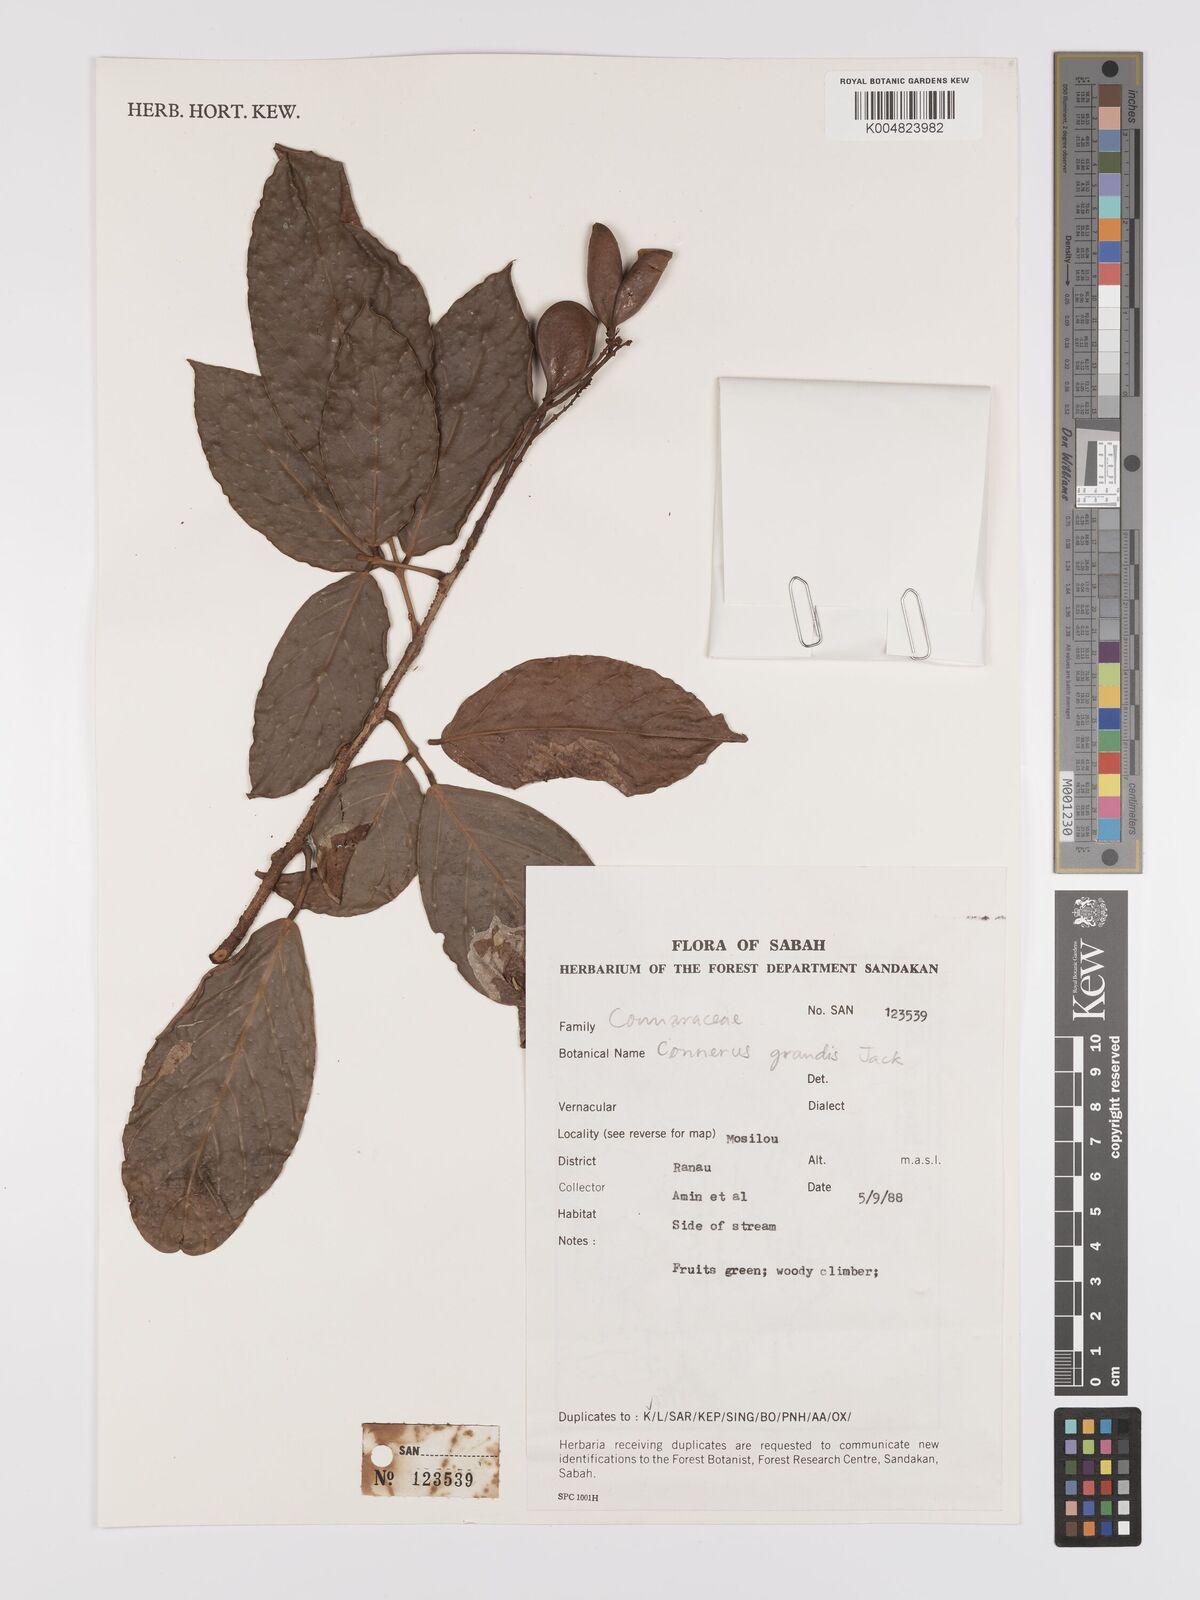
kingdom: Plantae
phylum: Tracheophyta
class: Magnoliopsida
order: Oxalidales
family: Connaraceae
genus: Connarus
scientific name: Connarus grandis
